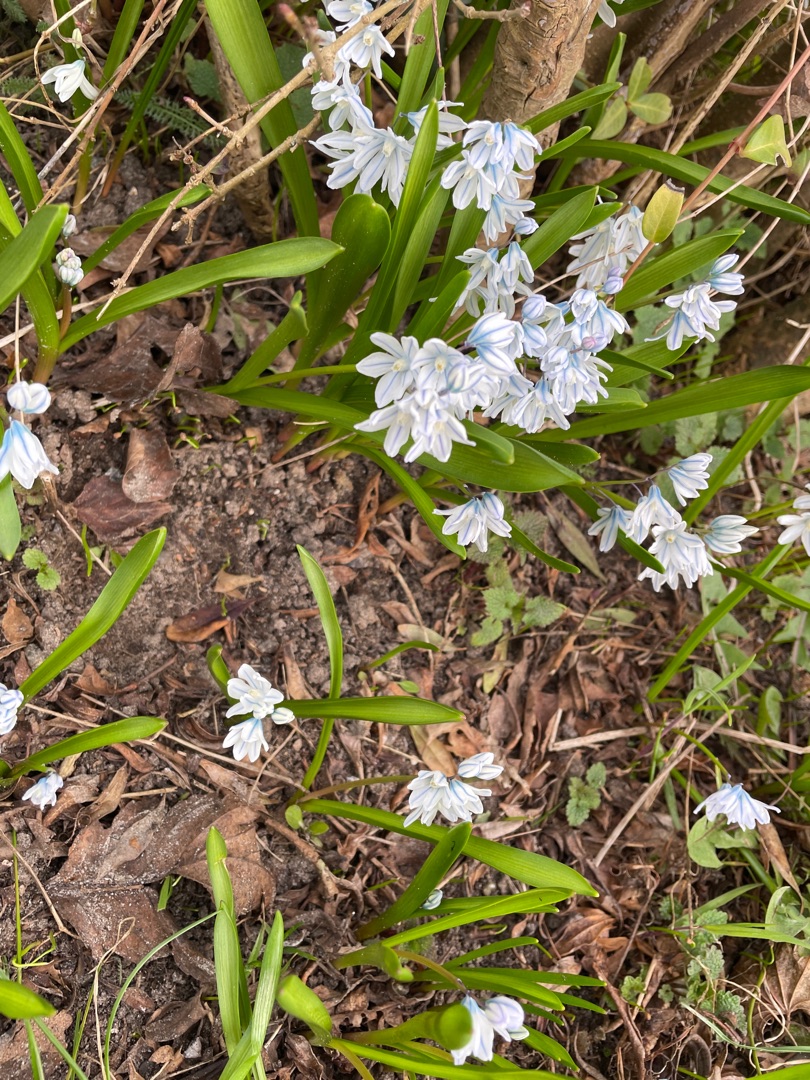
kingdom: Plantae
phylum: Tracheophyta
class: Liliopsida
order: Asparagales
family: Asparagaceae
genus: Puschkinia
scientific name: Puschkinia scilloides
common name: Porcelænshyacint
